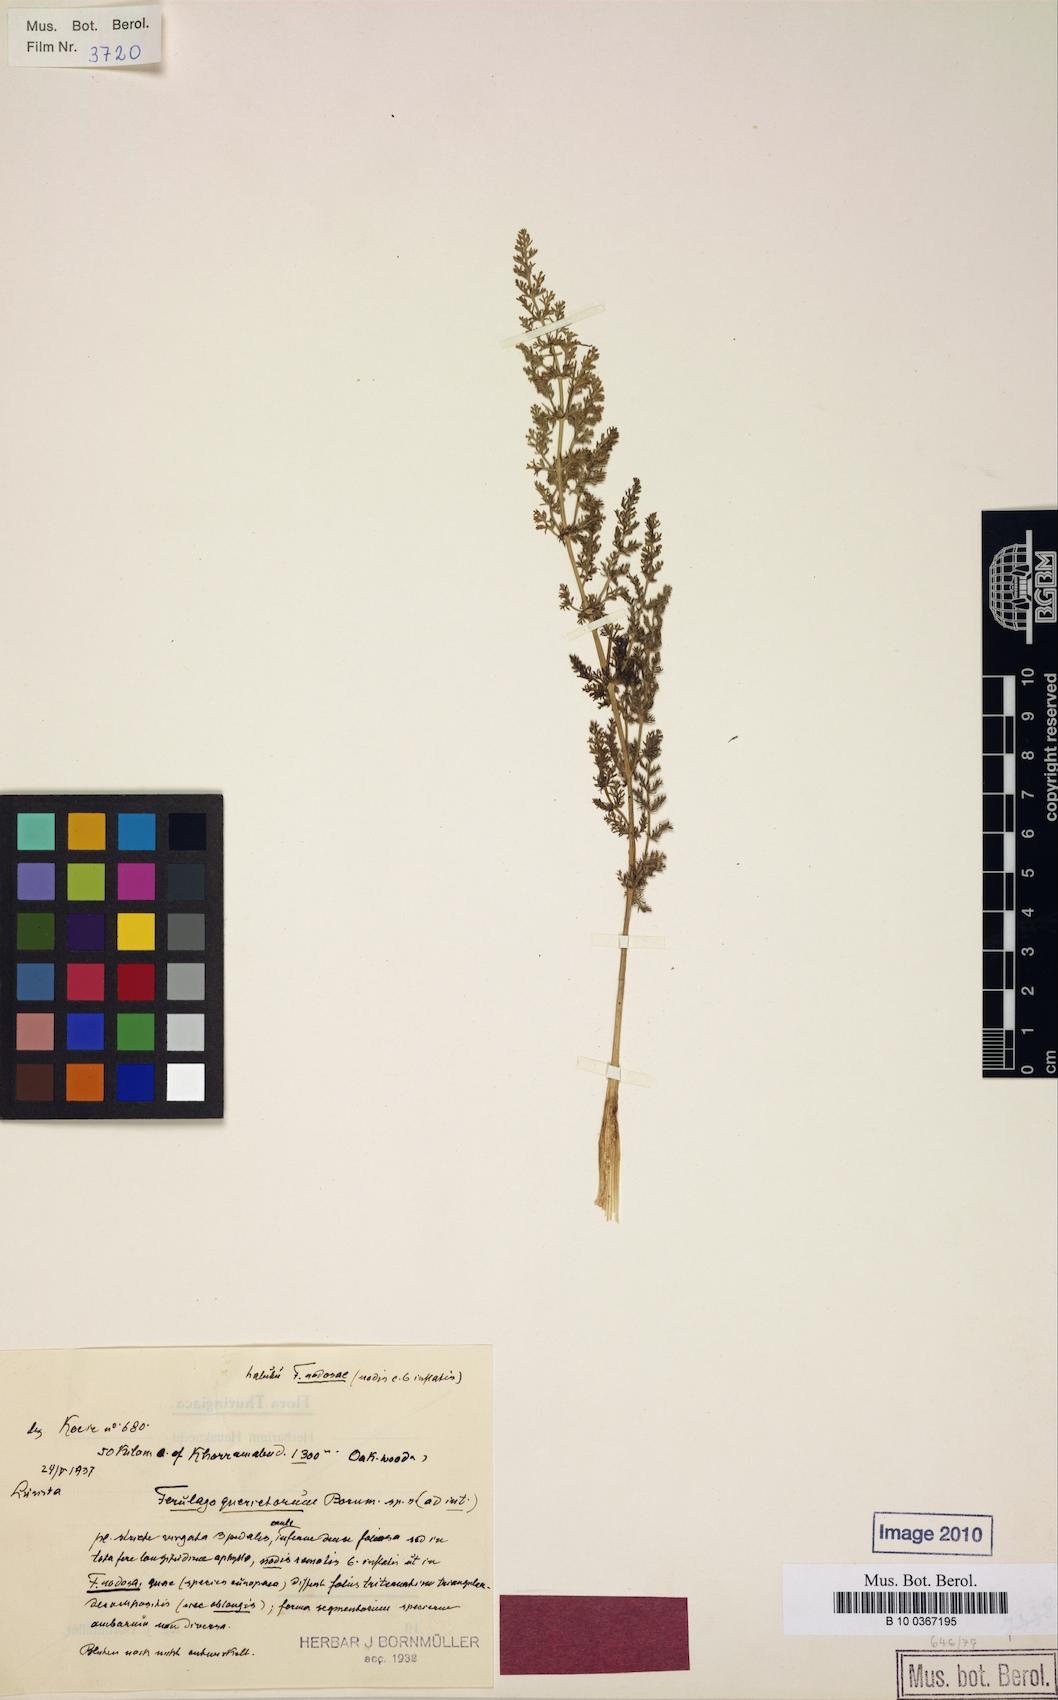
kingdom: Plantae
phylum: Tracheophyta
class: Magnoliopsida
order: Apiales
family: Apiaceae
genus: Anethum
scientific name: Anethum ridolfia
